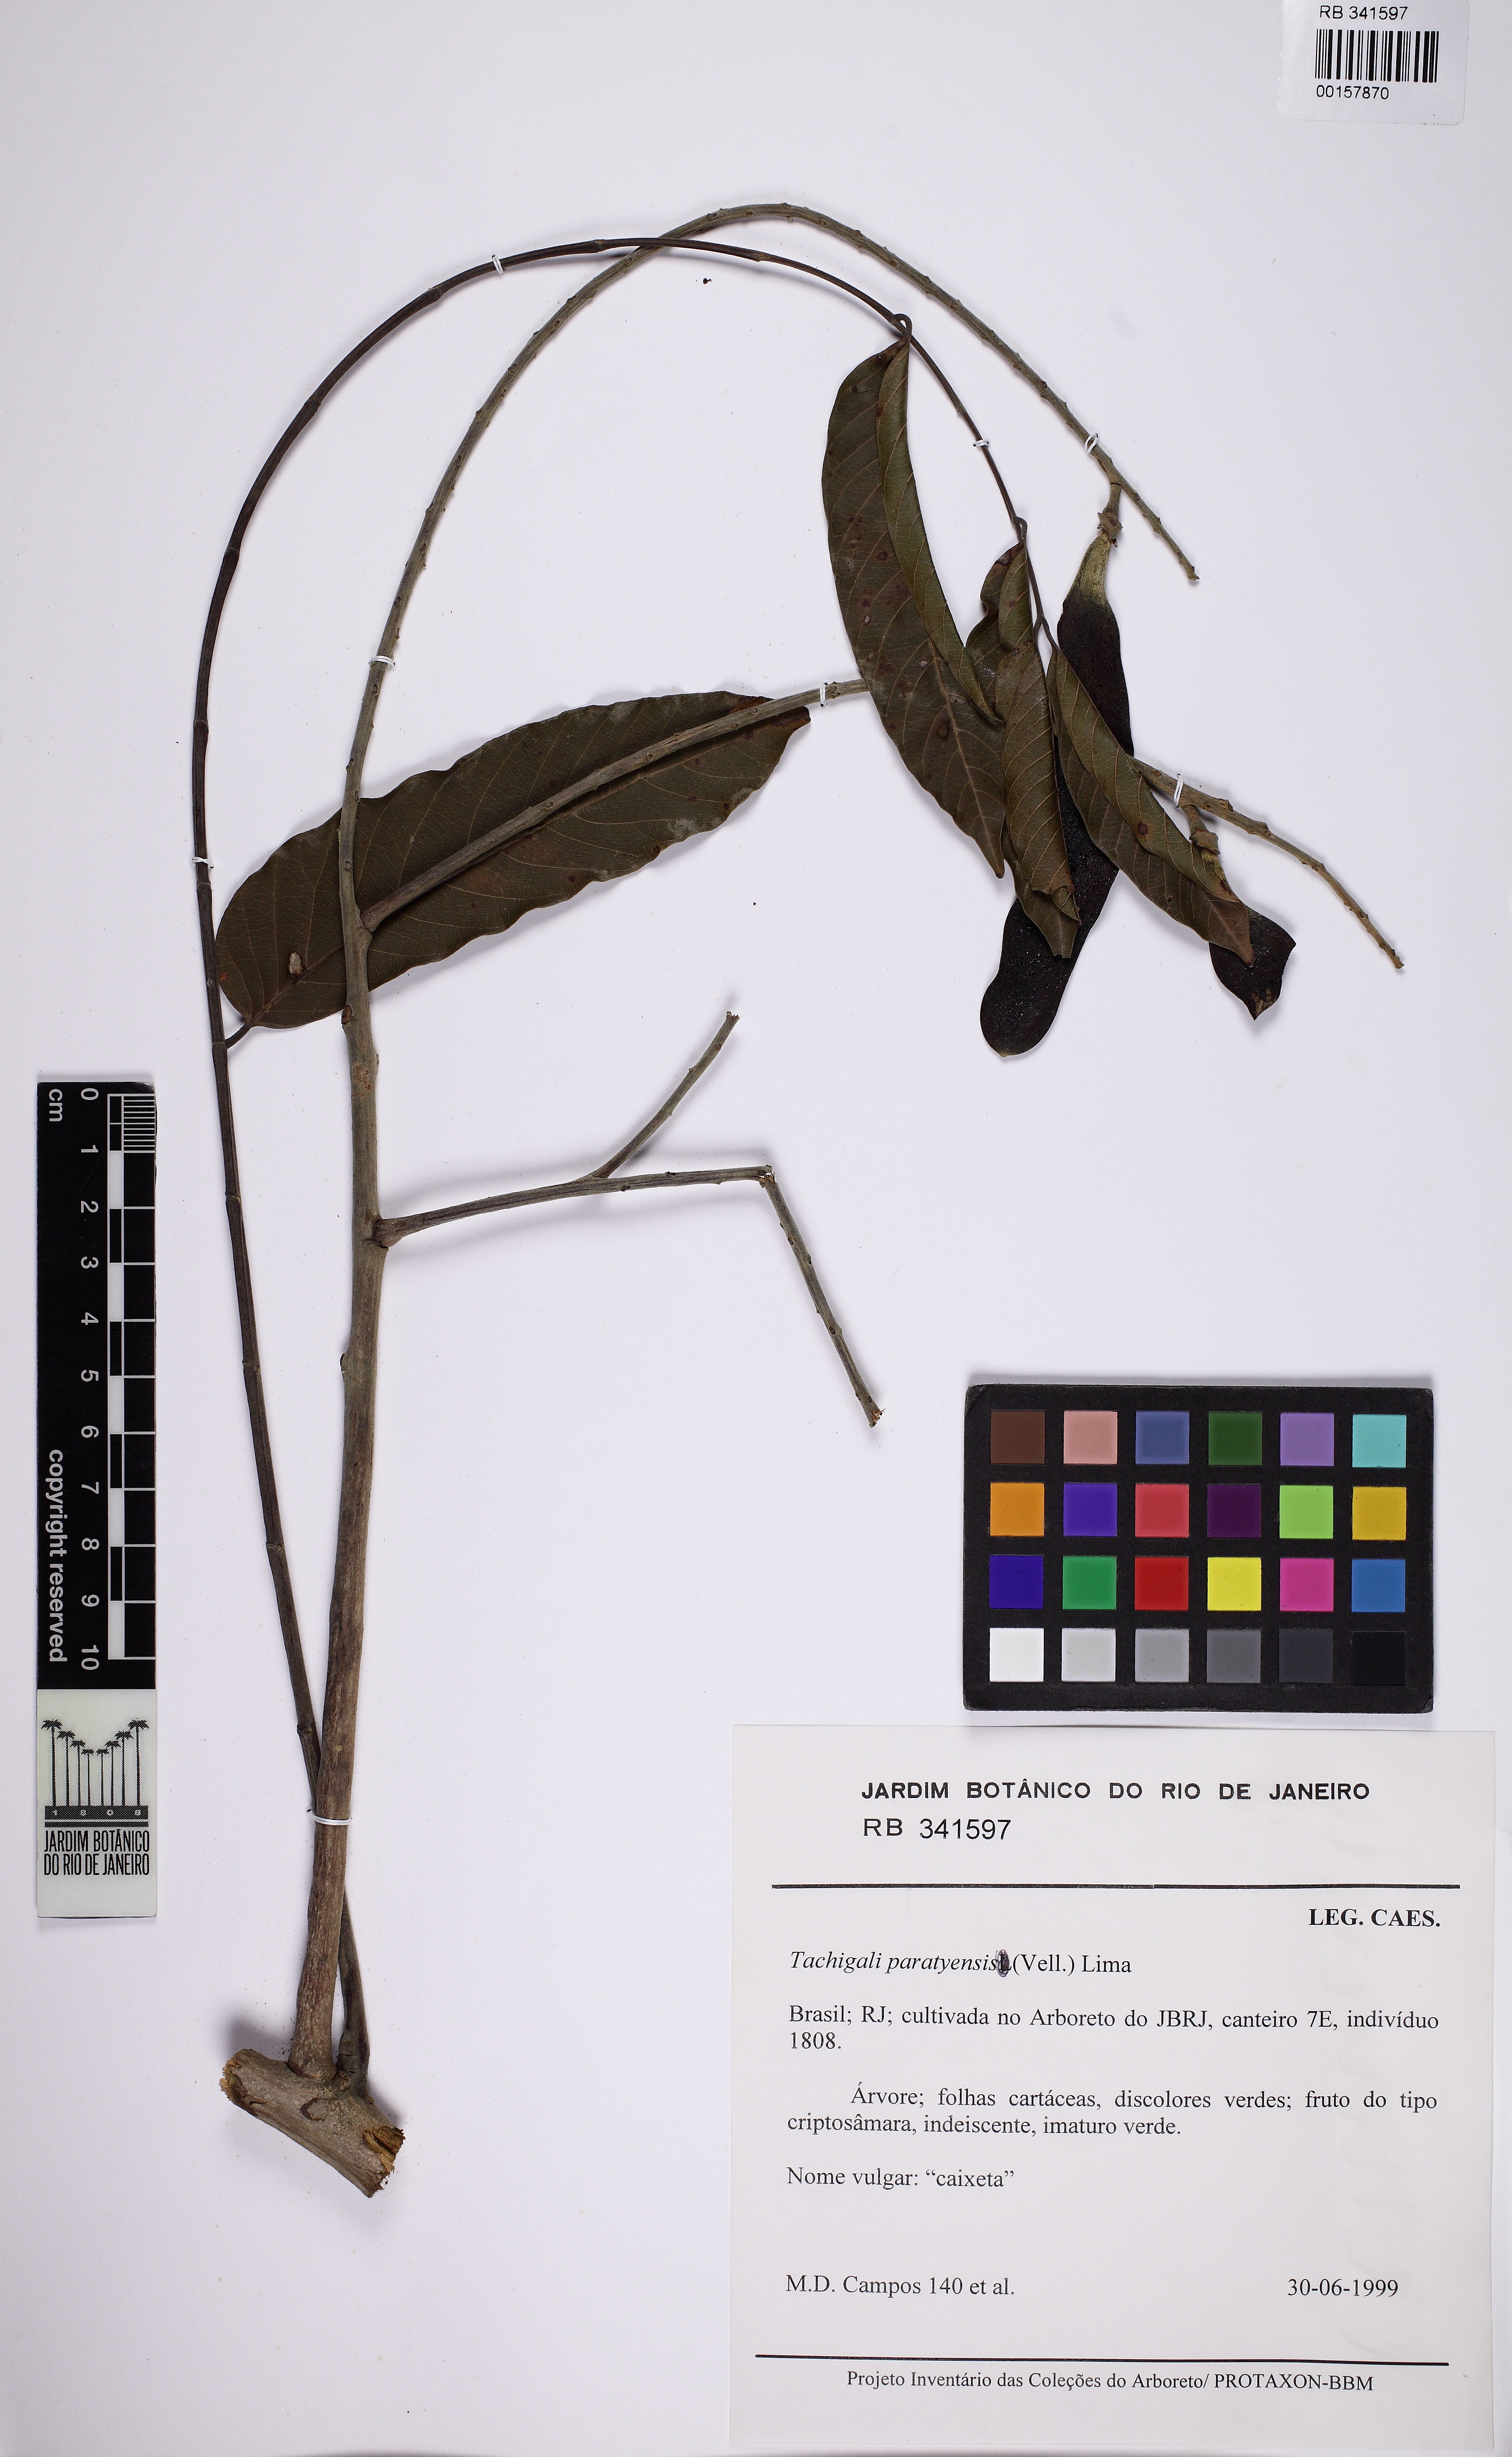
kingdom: Plantae
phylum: Tracheophyta
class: Magnoliopsida
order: Fabales
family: Fabaceae
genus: Tachigali
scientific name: Tachigali paratyensis
